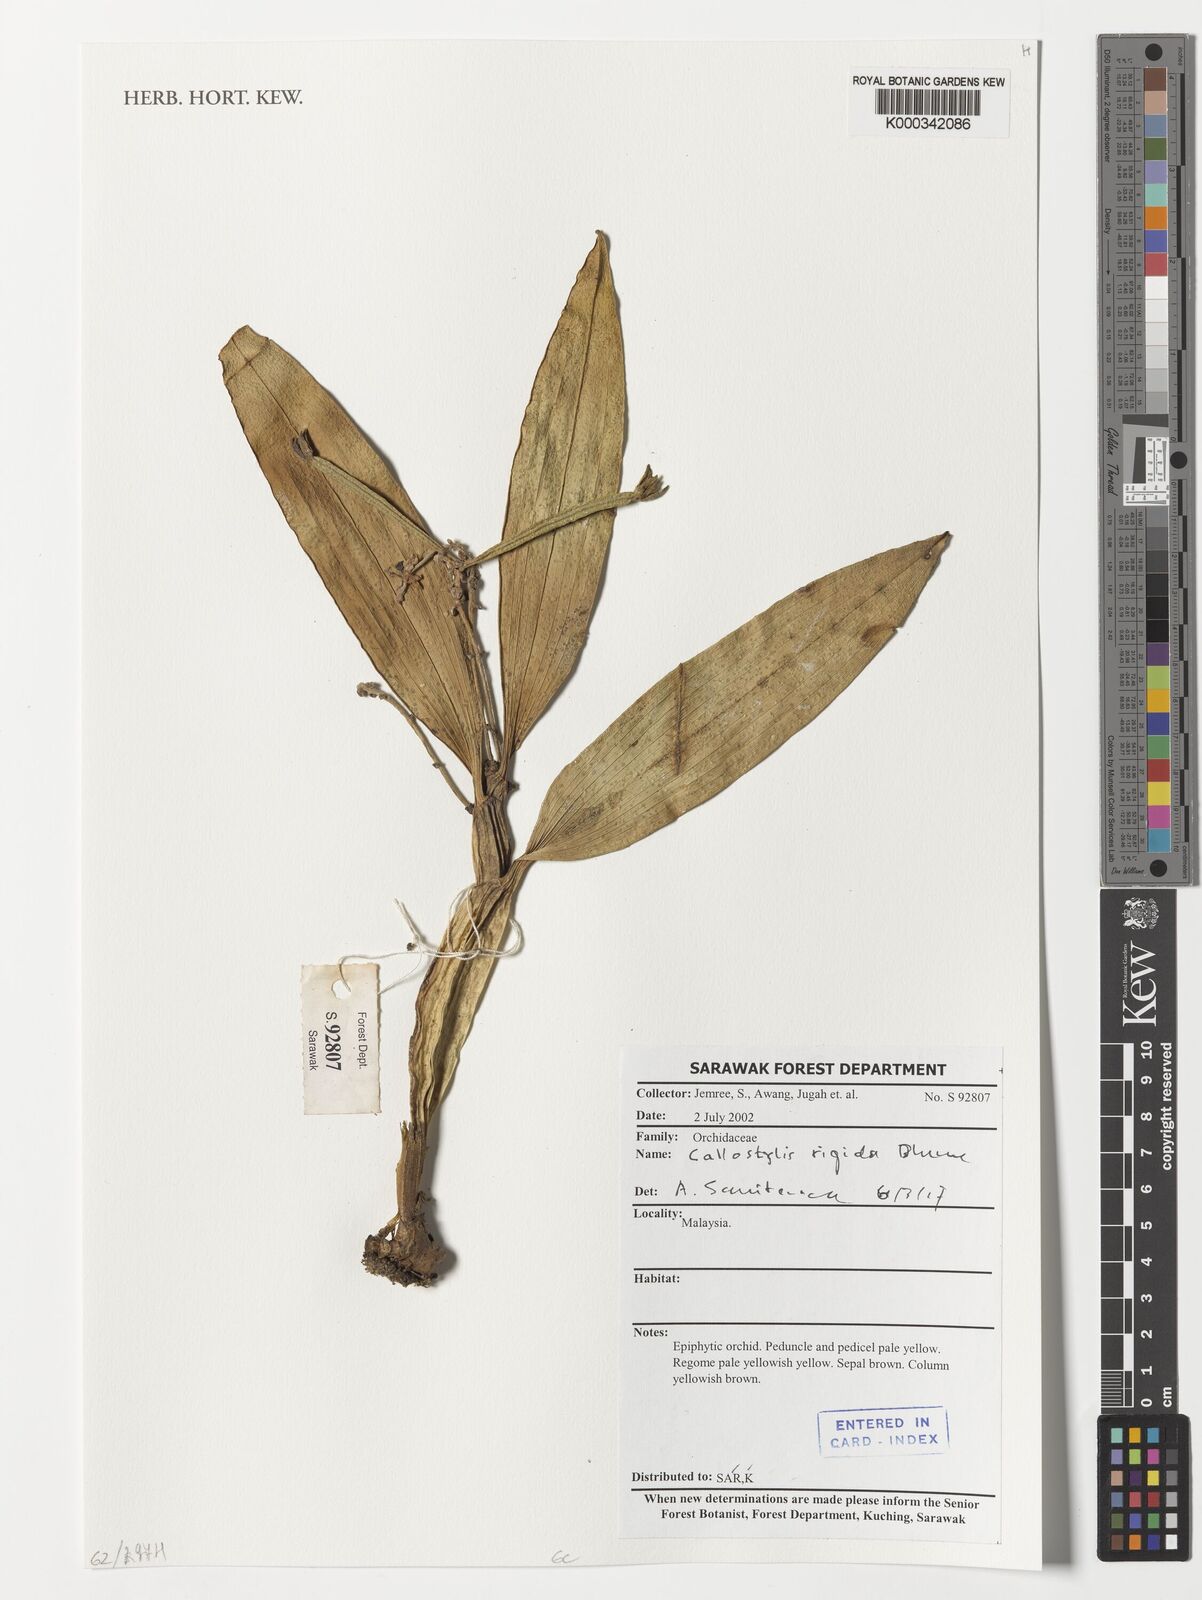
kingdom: Plantae
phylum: Tracheophyta
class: Liliopsida
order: Asparagales
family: Orchidaceae
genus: Callostylis
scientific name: Callostylis rigida
